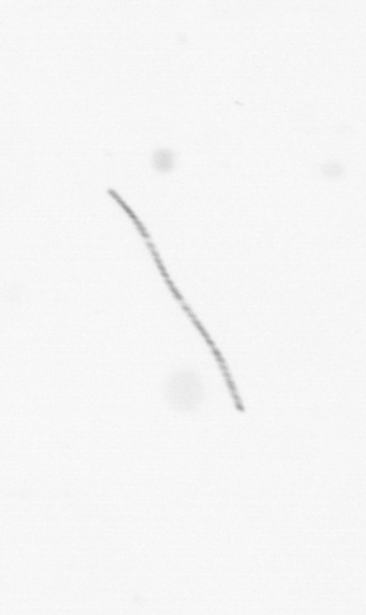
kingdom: Chromista
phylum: Ochrophyta
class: Bacillariophyceae
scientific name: Bacillariophyceae
